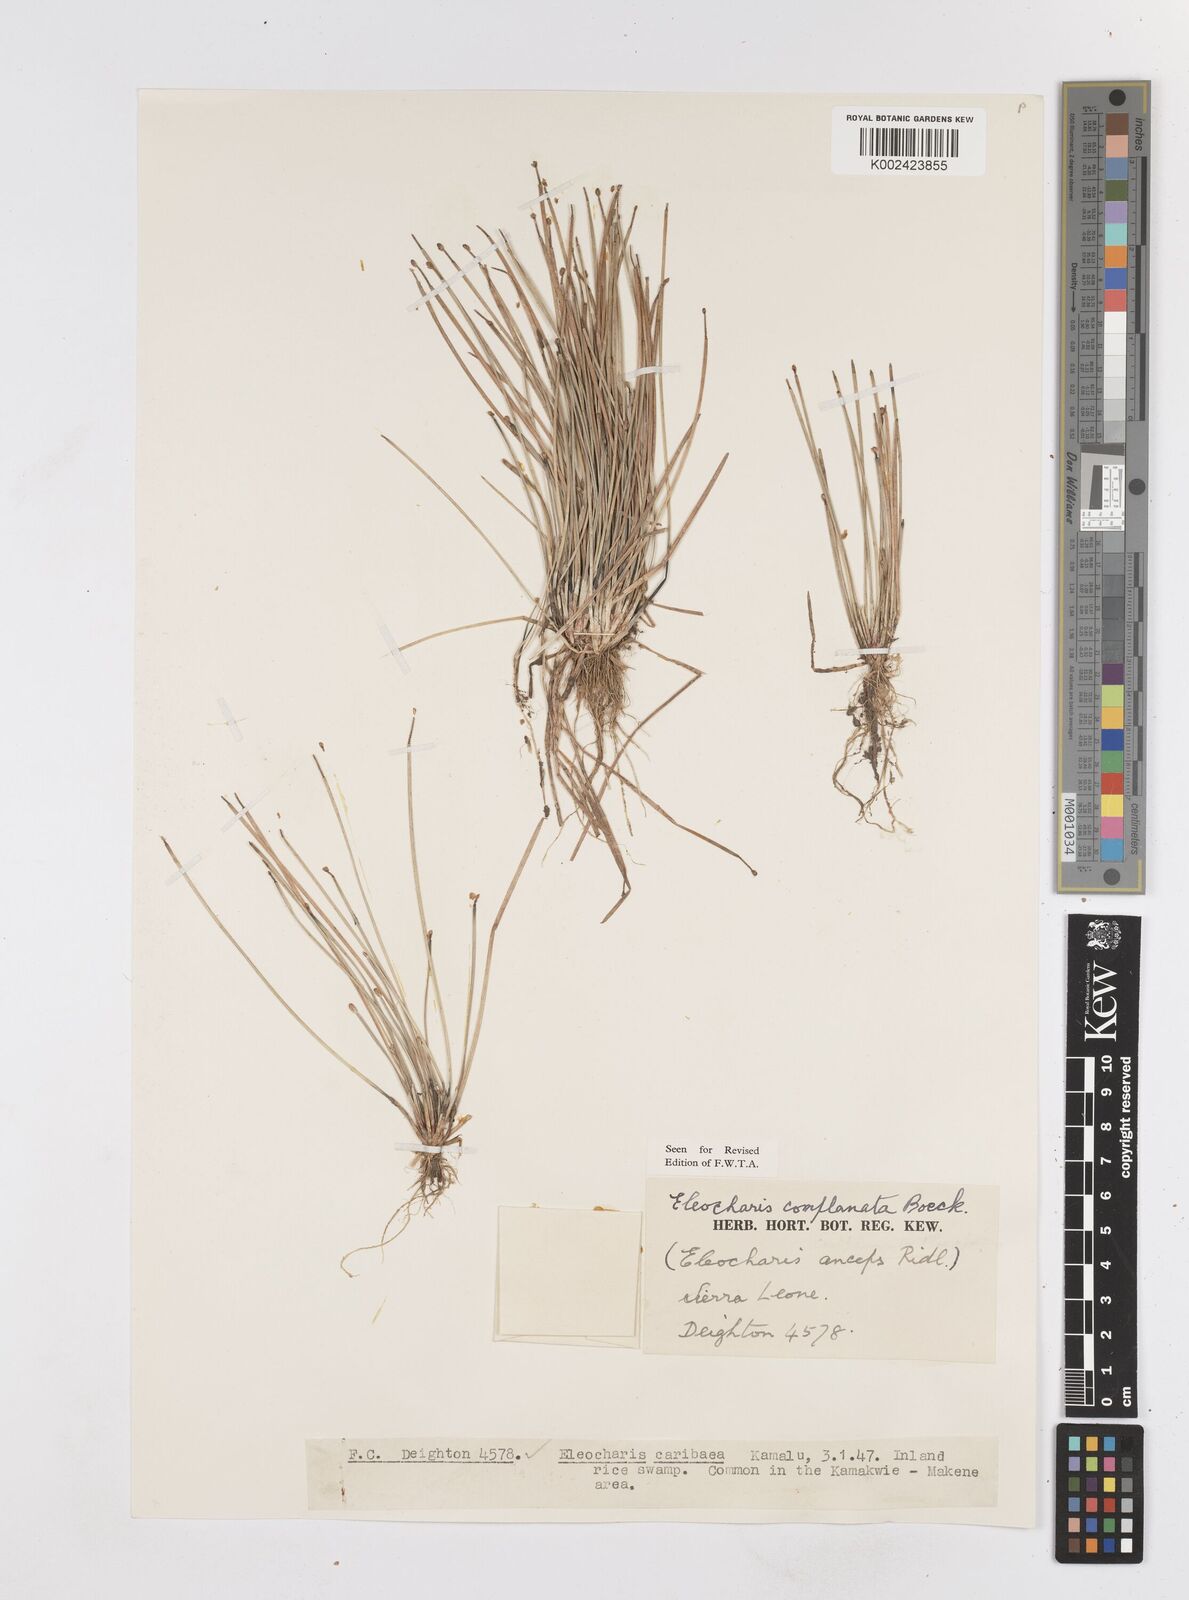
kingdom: Plantae
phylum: Tracheophyta
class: Liliopsida
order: Poales
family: Cyperaceae
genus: Eleocharis
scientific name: Eleocharis complanata
